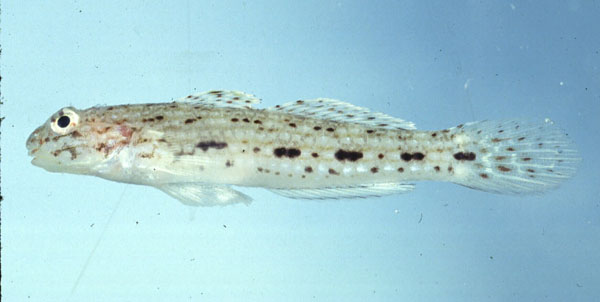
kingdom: Animalia
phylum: Chordata
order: Perciformes
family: Gobiidae
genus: Istigobius
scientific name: Istigobius nigroocellatus
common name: Black-spotted goby
